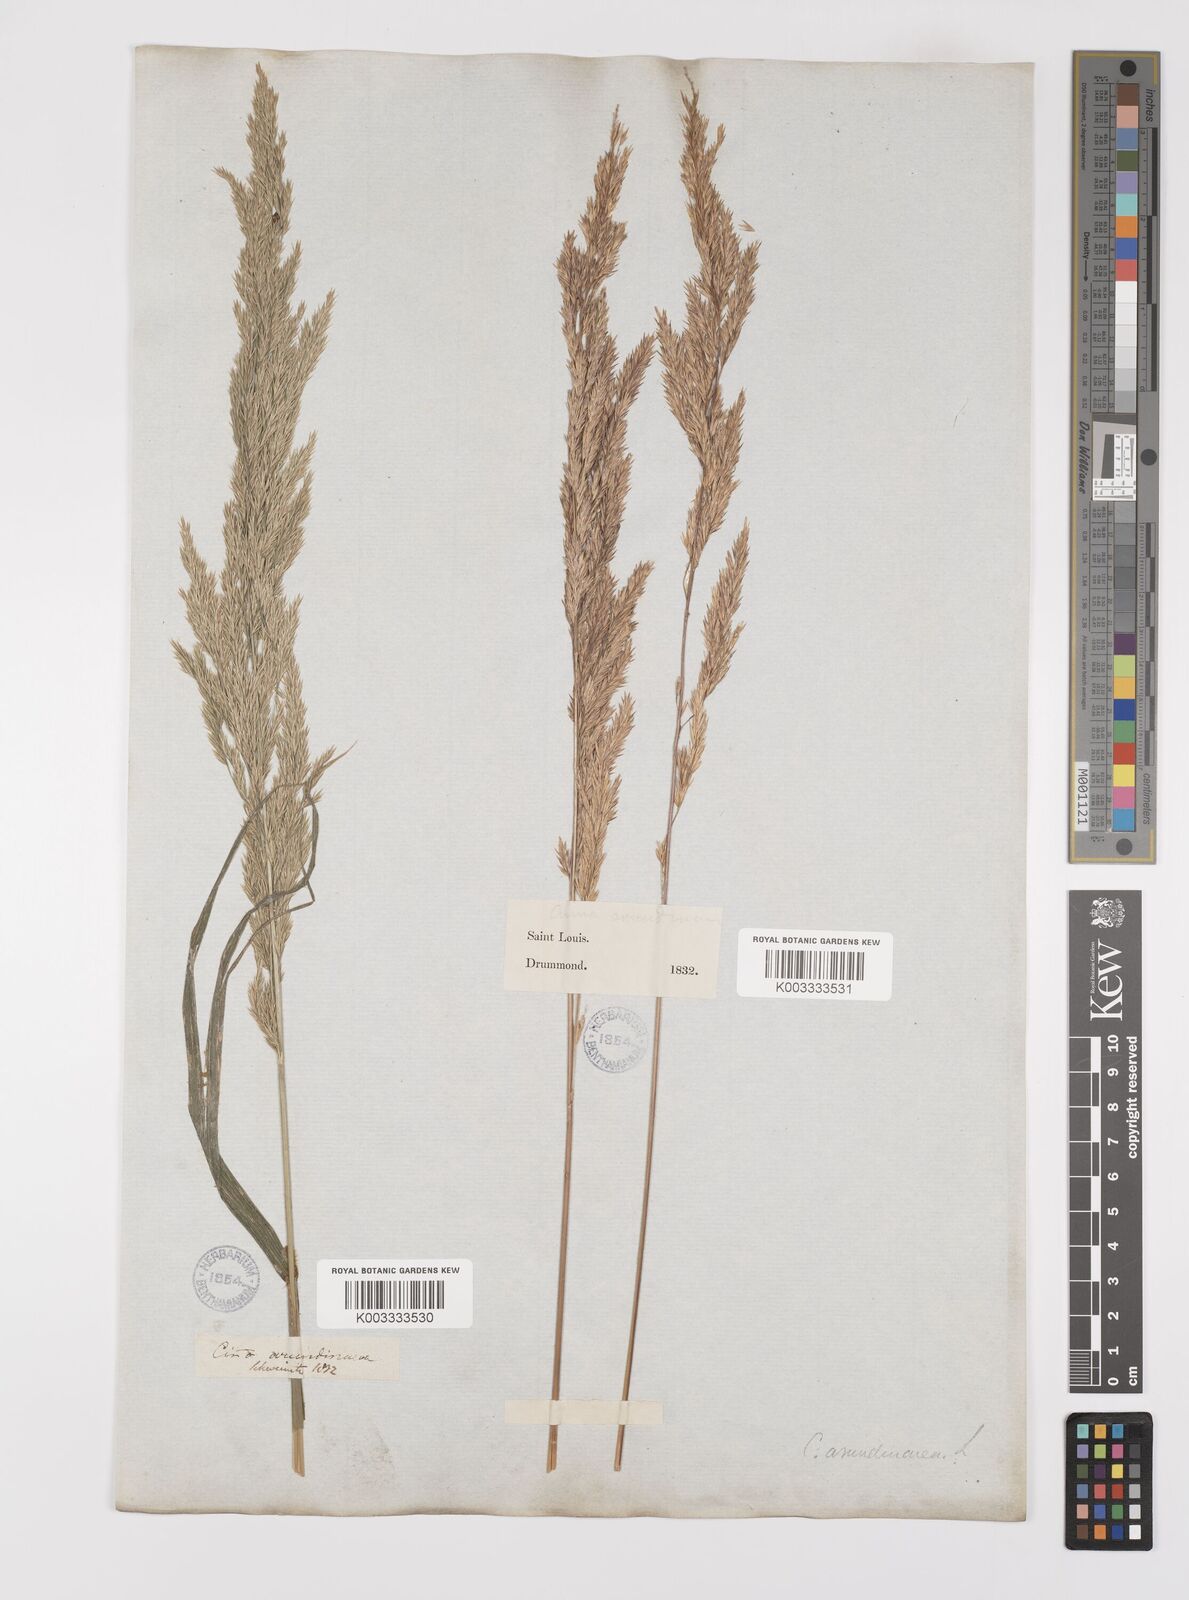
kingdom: Plantae
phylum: Tracheophyta
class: Liliopsida
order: Poales
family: Poaceae
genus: Cinna
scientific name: Cinna
